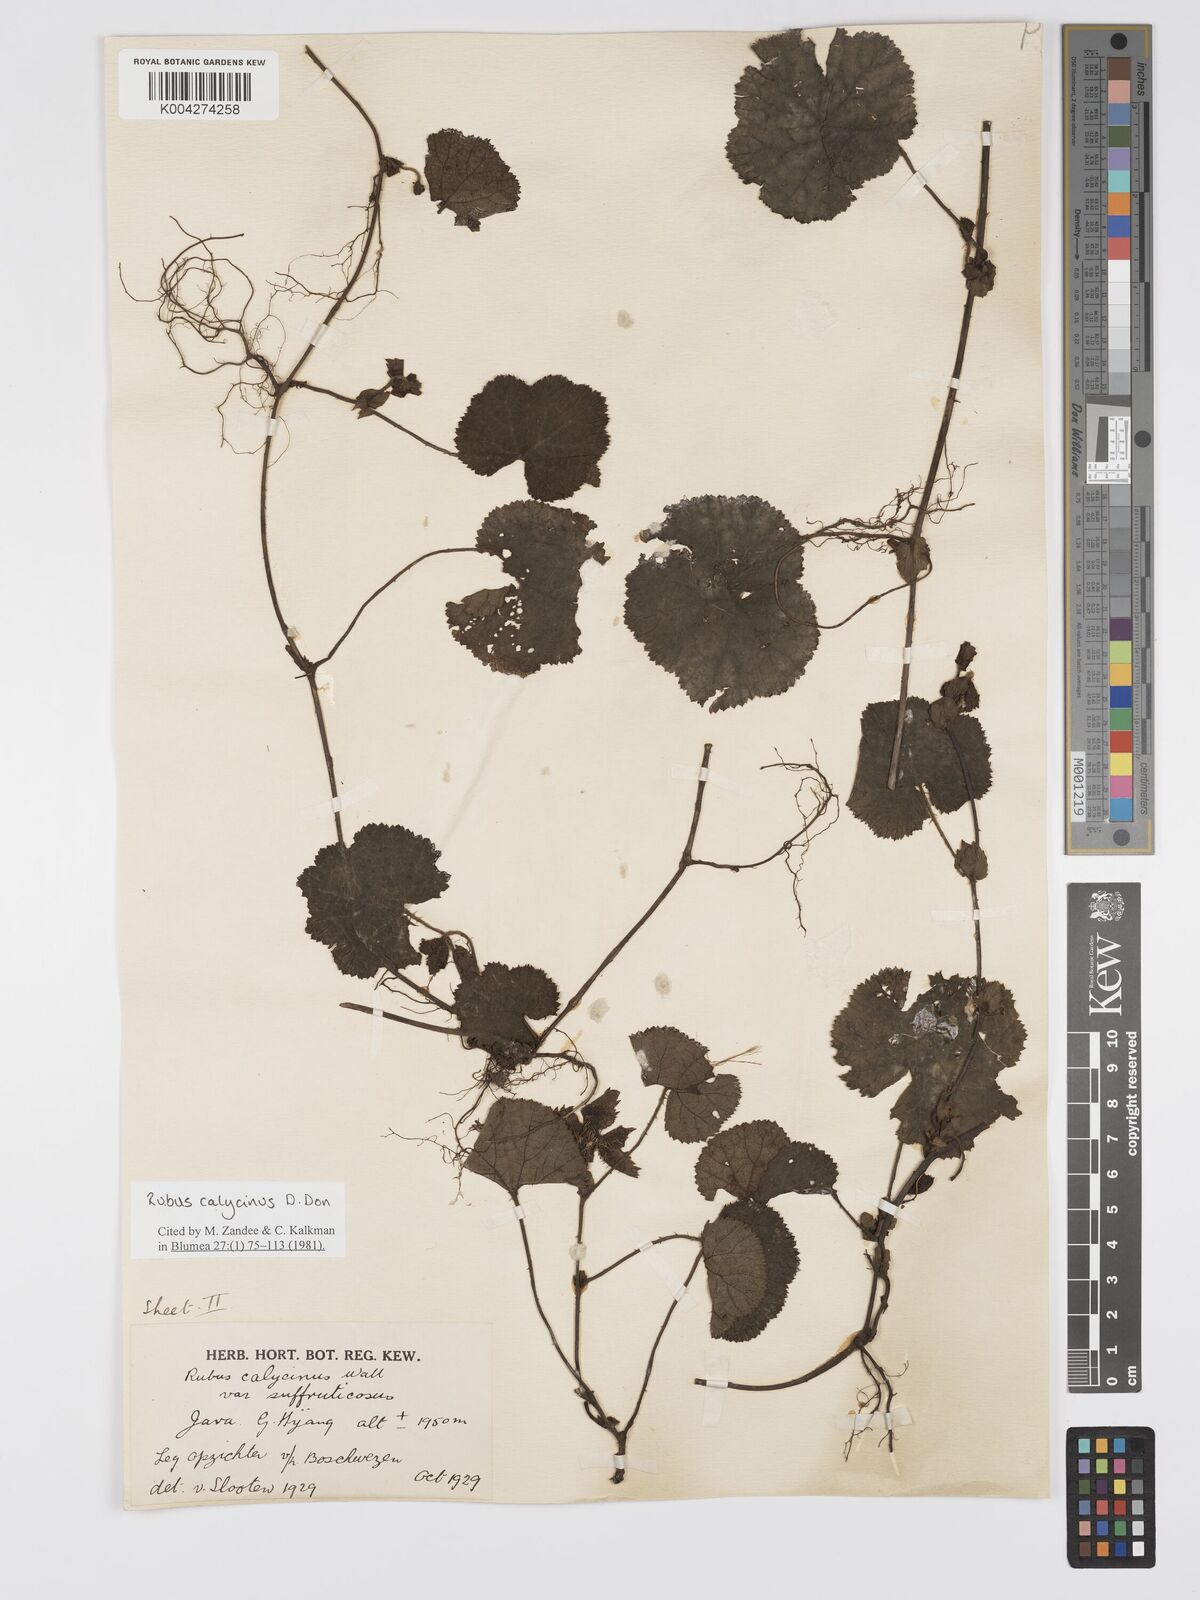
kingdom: Plantae
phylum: Tracheophyta
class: Magnoliopsida
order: Rosales
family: Rosaceae
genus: Rubus
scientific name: Rubus calycinus
